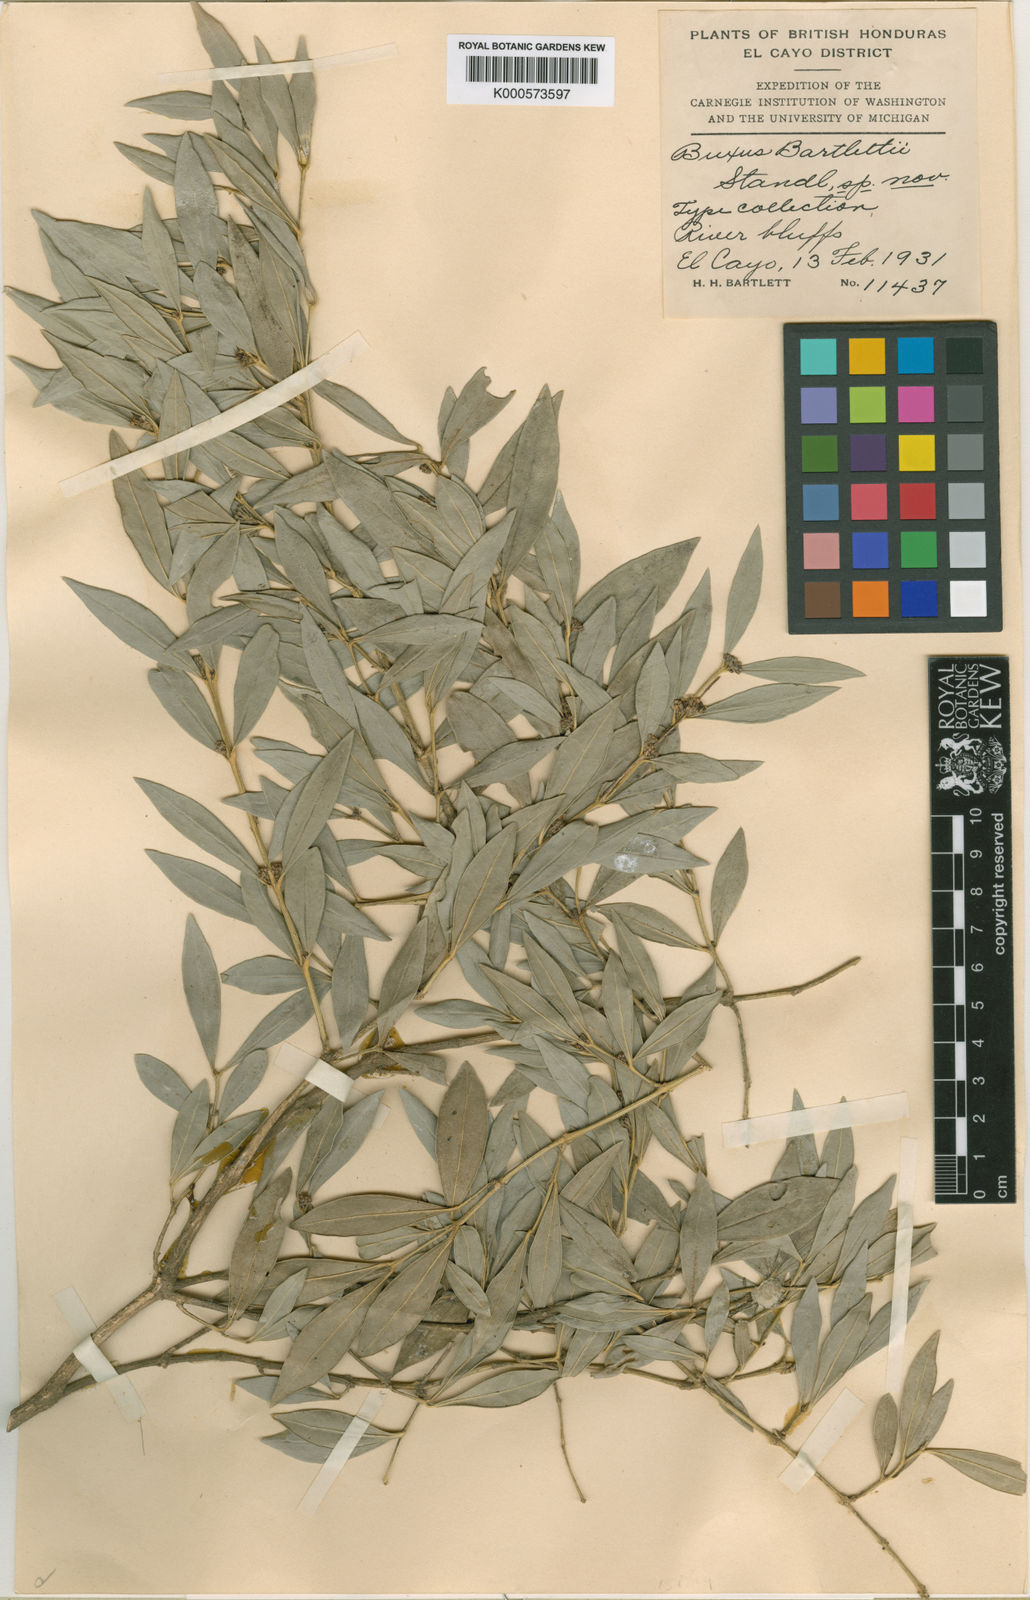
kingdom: Plantae
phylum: Tracheophyta
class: Magnoliopsida
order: Buxales
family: Buxaceae
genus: Buxus
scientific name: Buxus bartlettii
